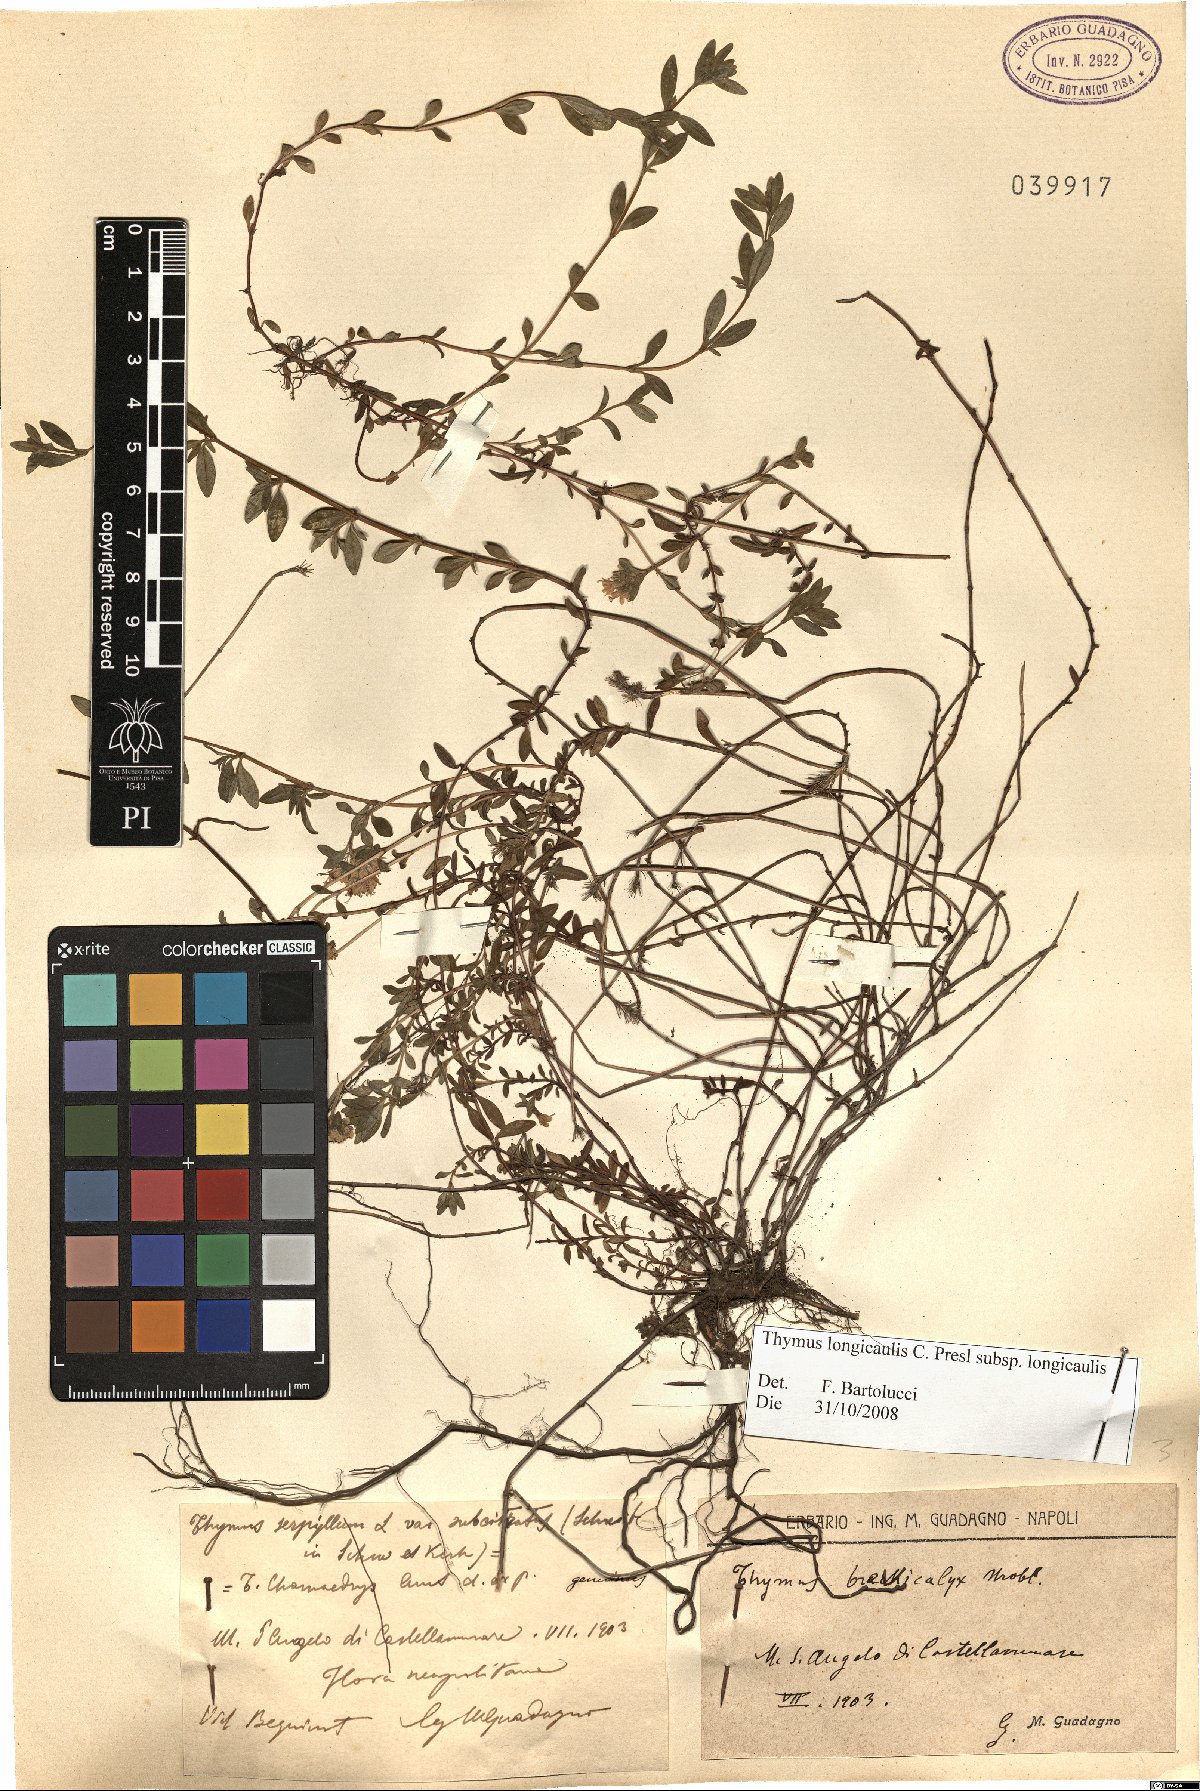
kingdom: Plantae
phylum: Tracheophyta
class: Magnoliopsida
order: Lamiales
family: Lamiaceae
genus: Thymus
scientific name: Thymus longicaulis
